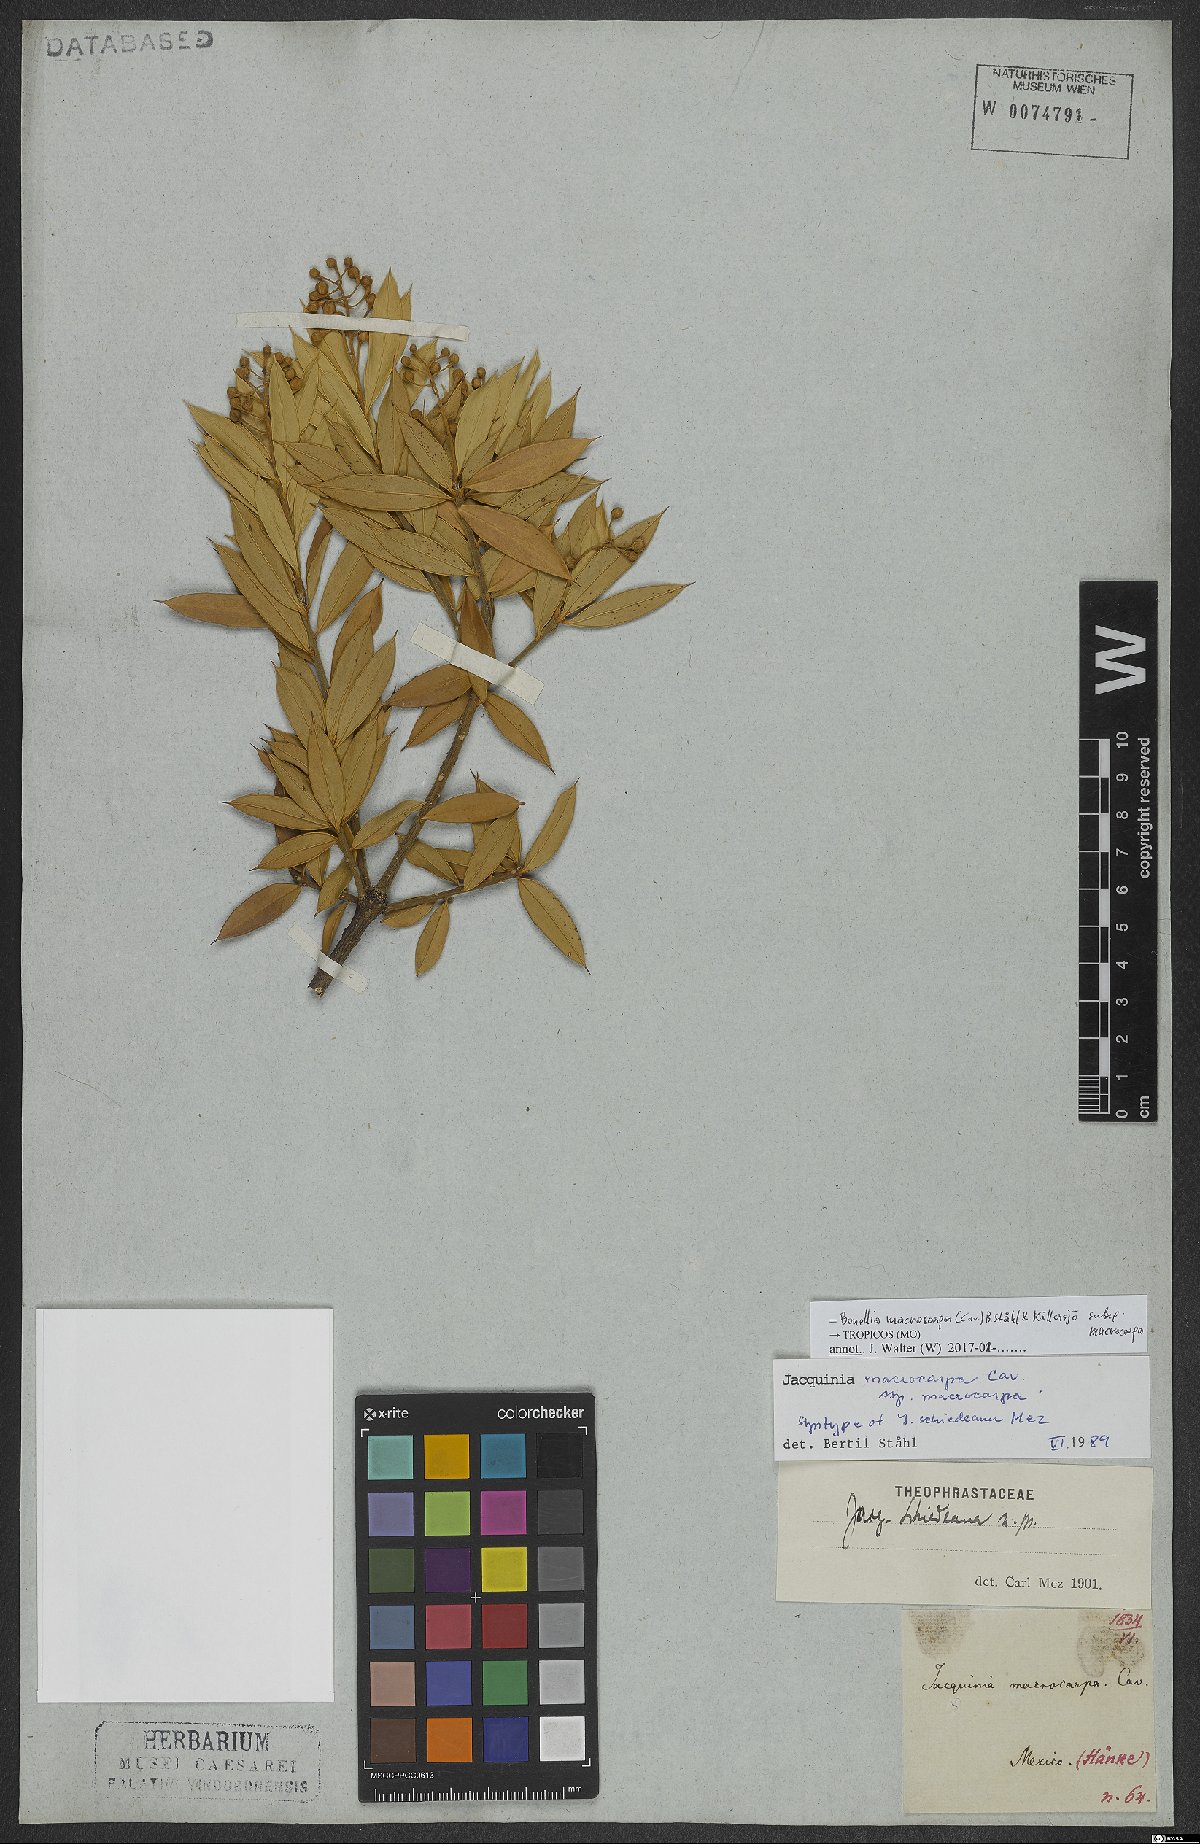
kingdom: Plantae
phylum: Tracheophyta
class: Magnoliopsida
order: Ericales
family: Primulaceae
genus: Bonellia
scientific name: Bonellia macrocarpa
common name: Primrose
